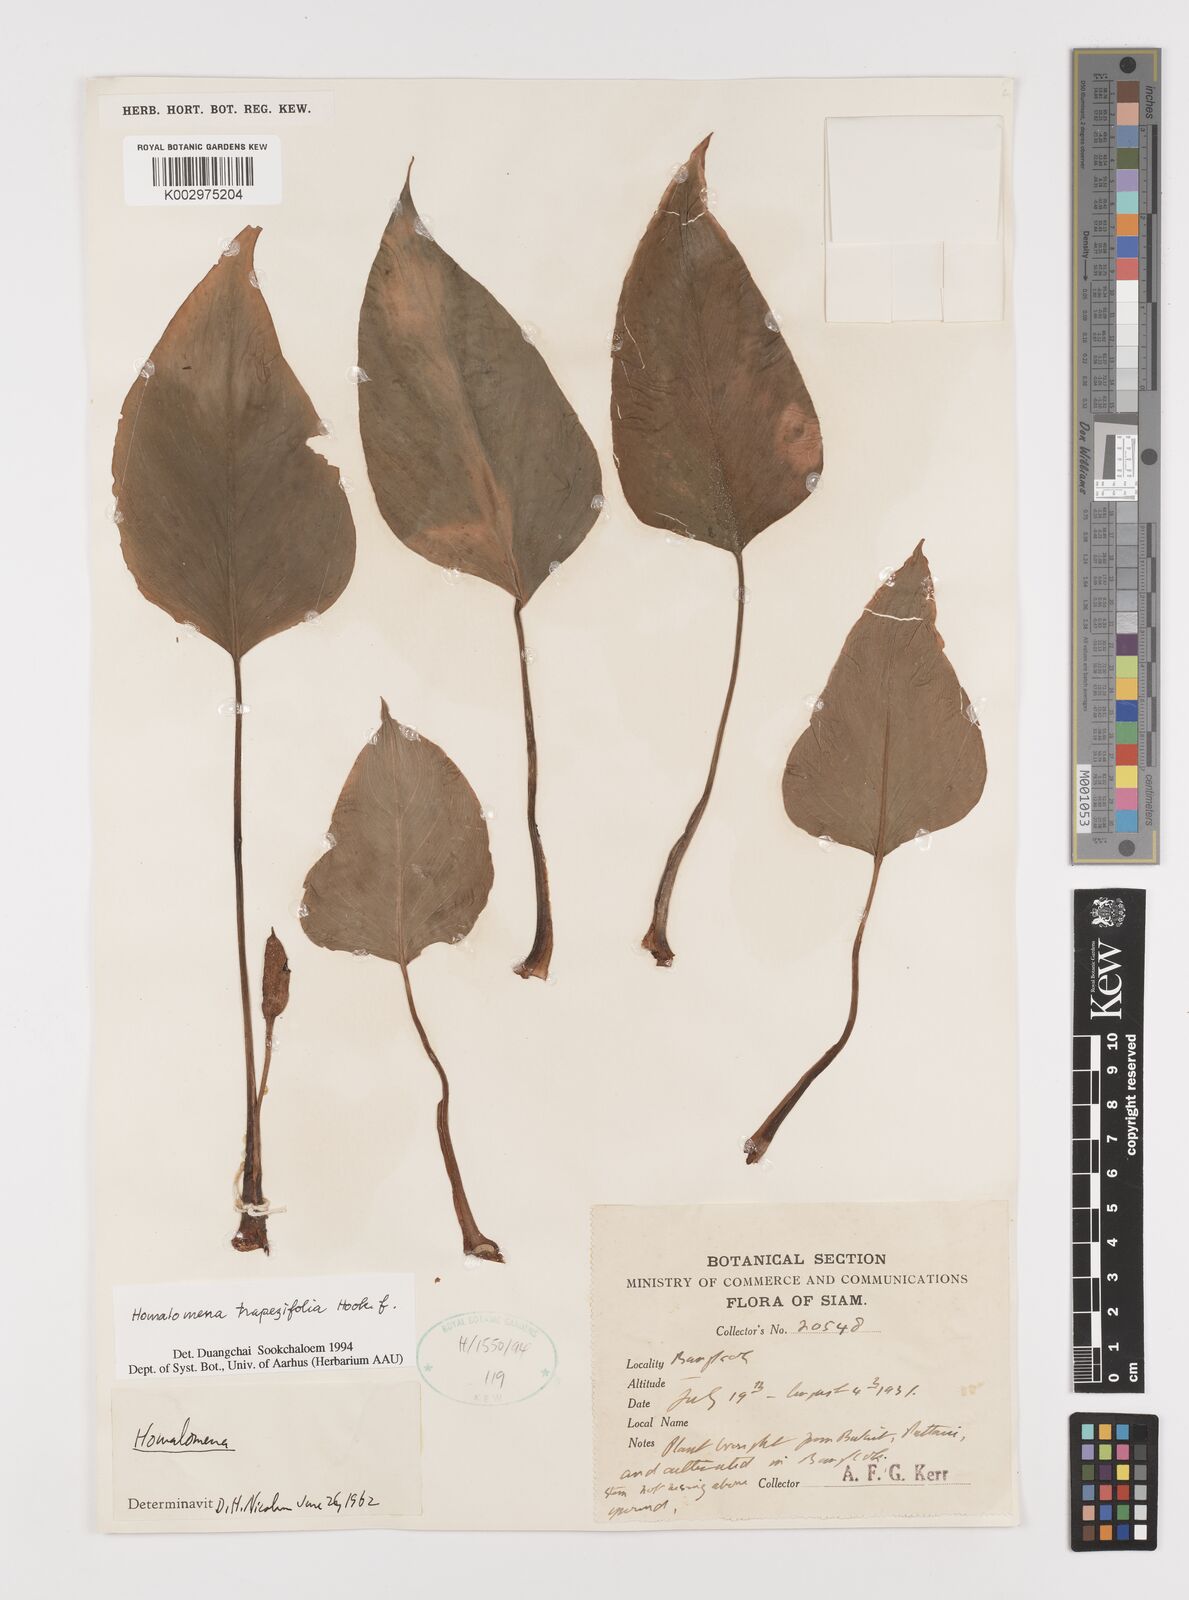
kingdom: Plantae
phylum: Tracheophyta
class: Liliopsida
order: Alismatales
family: Araceae
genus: Homalomena
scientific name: Homalomena griffithii
